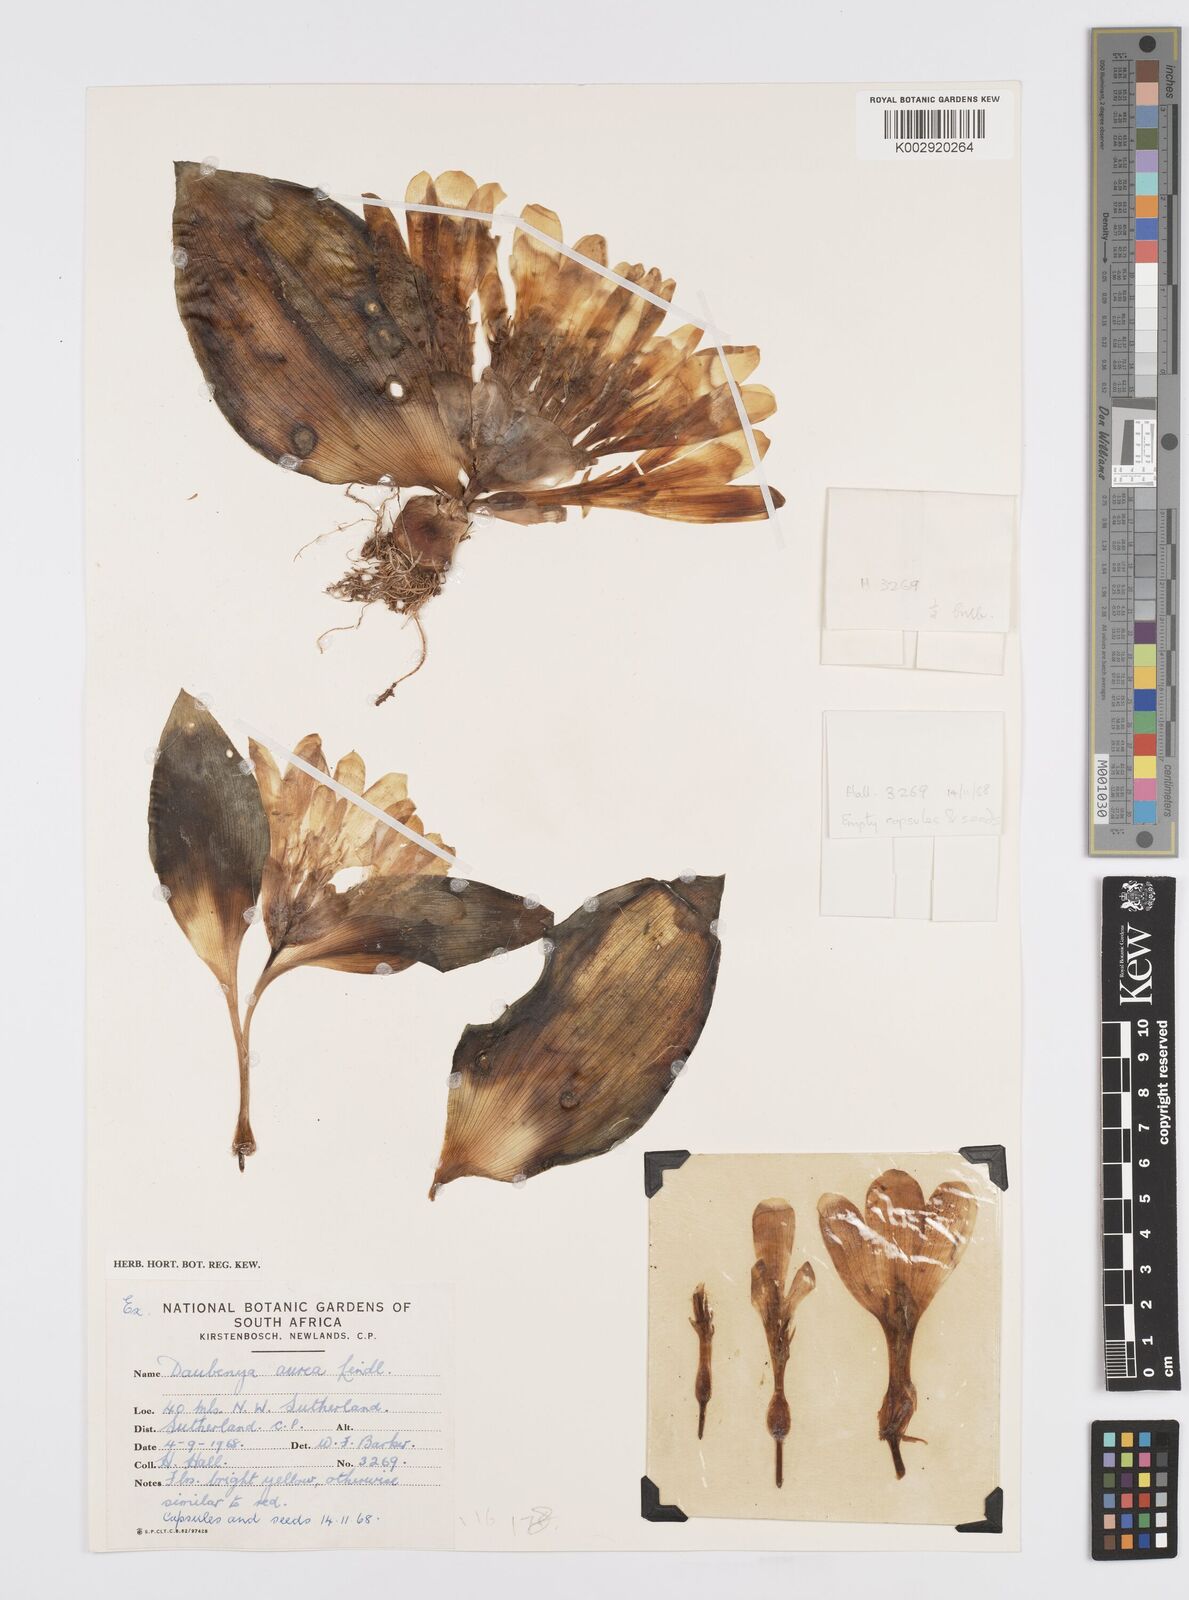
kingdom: Plantae
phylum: Tracheophyta
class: Liliopsida
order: Asparagales
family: Asparagaceae
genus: Daubenya
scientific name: Daubenya aurea
